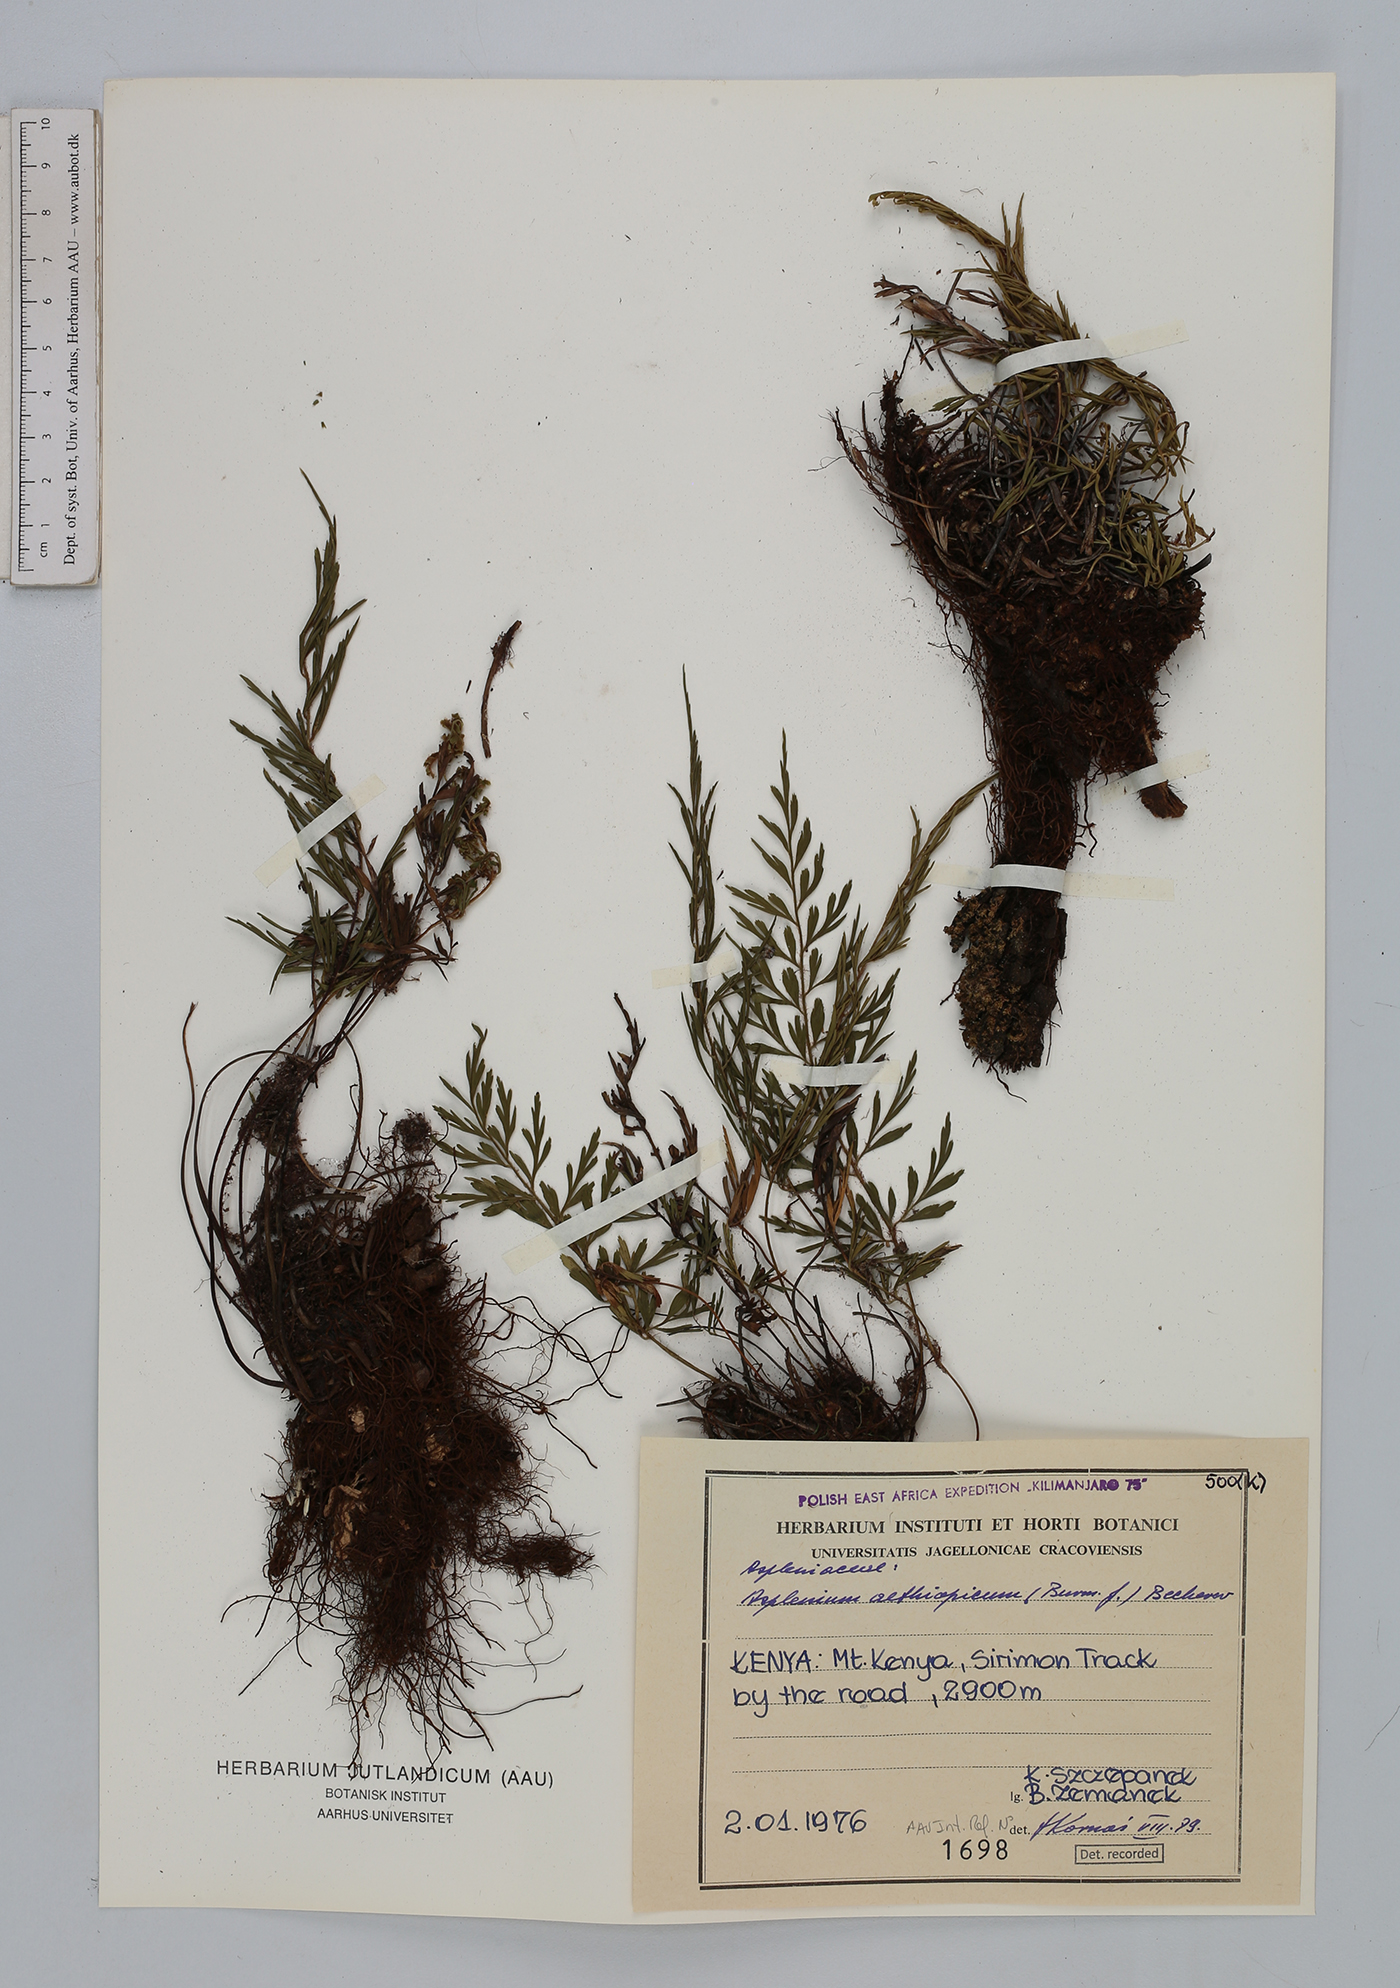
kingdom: Plantae
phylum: Tracheophyta
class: Polypodiopsida
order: Polypodiales
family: Aspleniaceae
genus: Asplenium
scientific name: Asplenium aethiopicum
